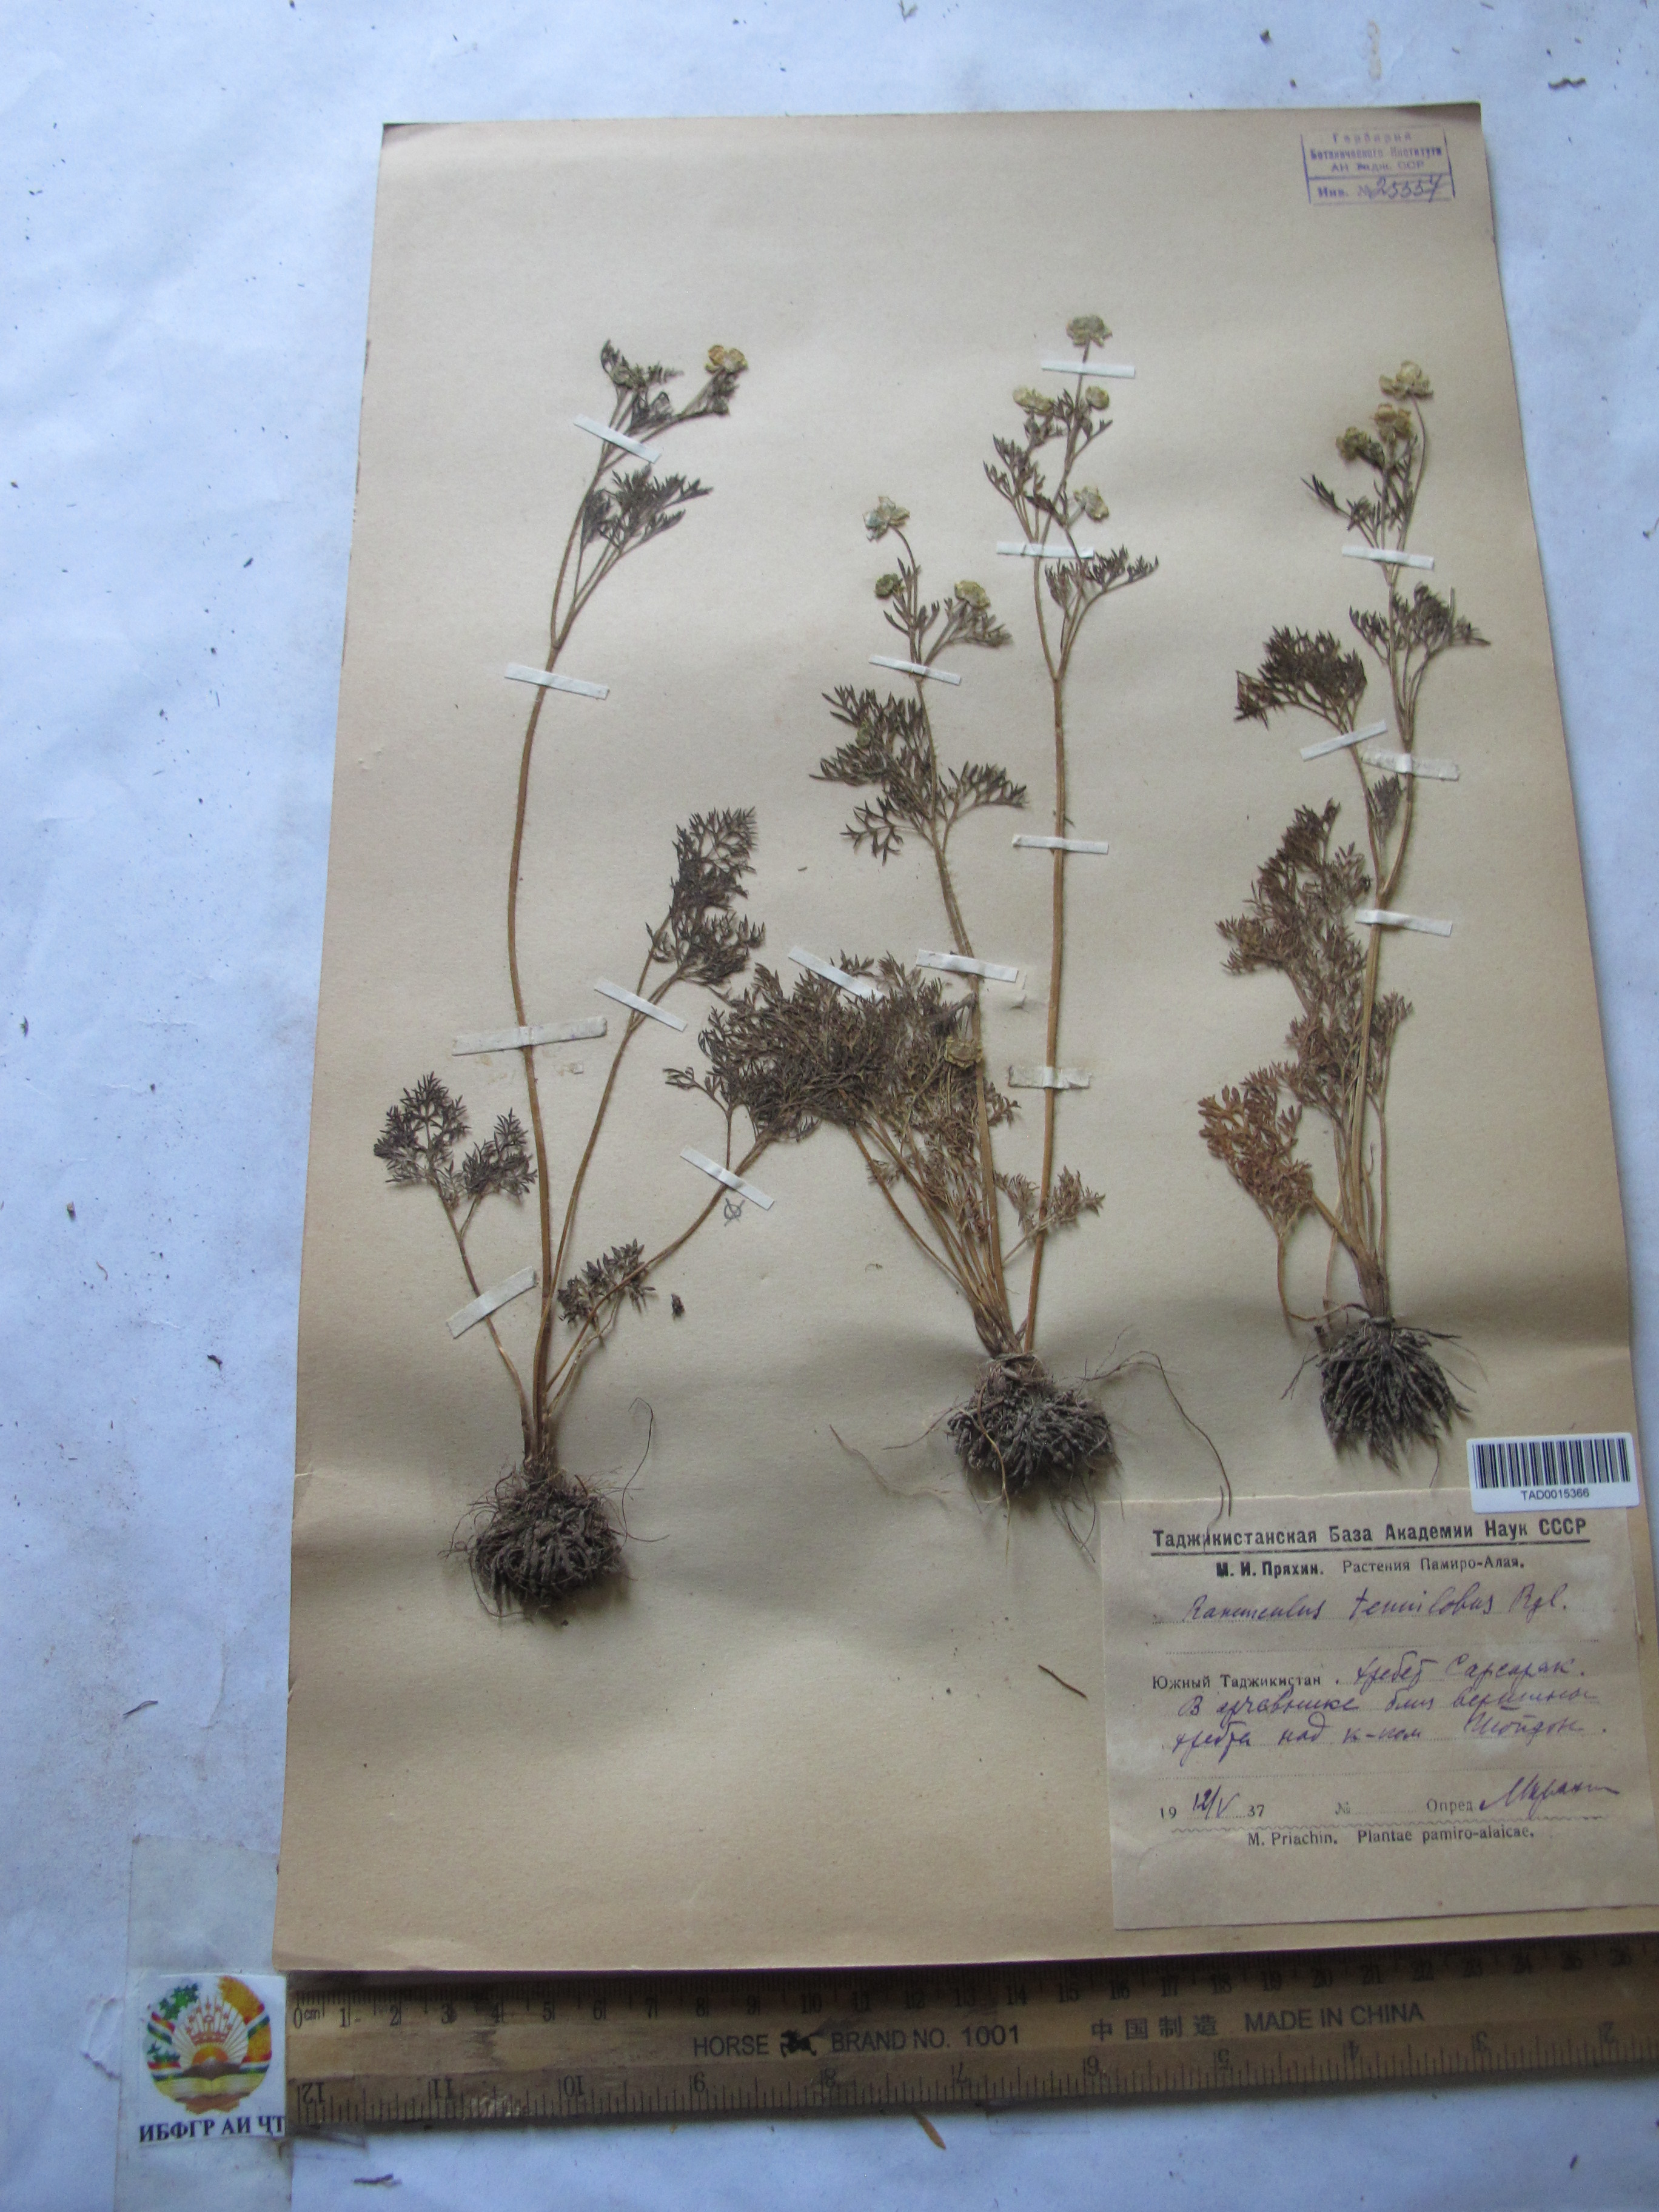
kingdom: Plantae
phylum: Tracheophyta
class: Magnoliopsida
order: Ranunculales
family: Ranunculaceae
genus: Ranunculus
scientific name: Ranunculus tenuilobus
